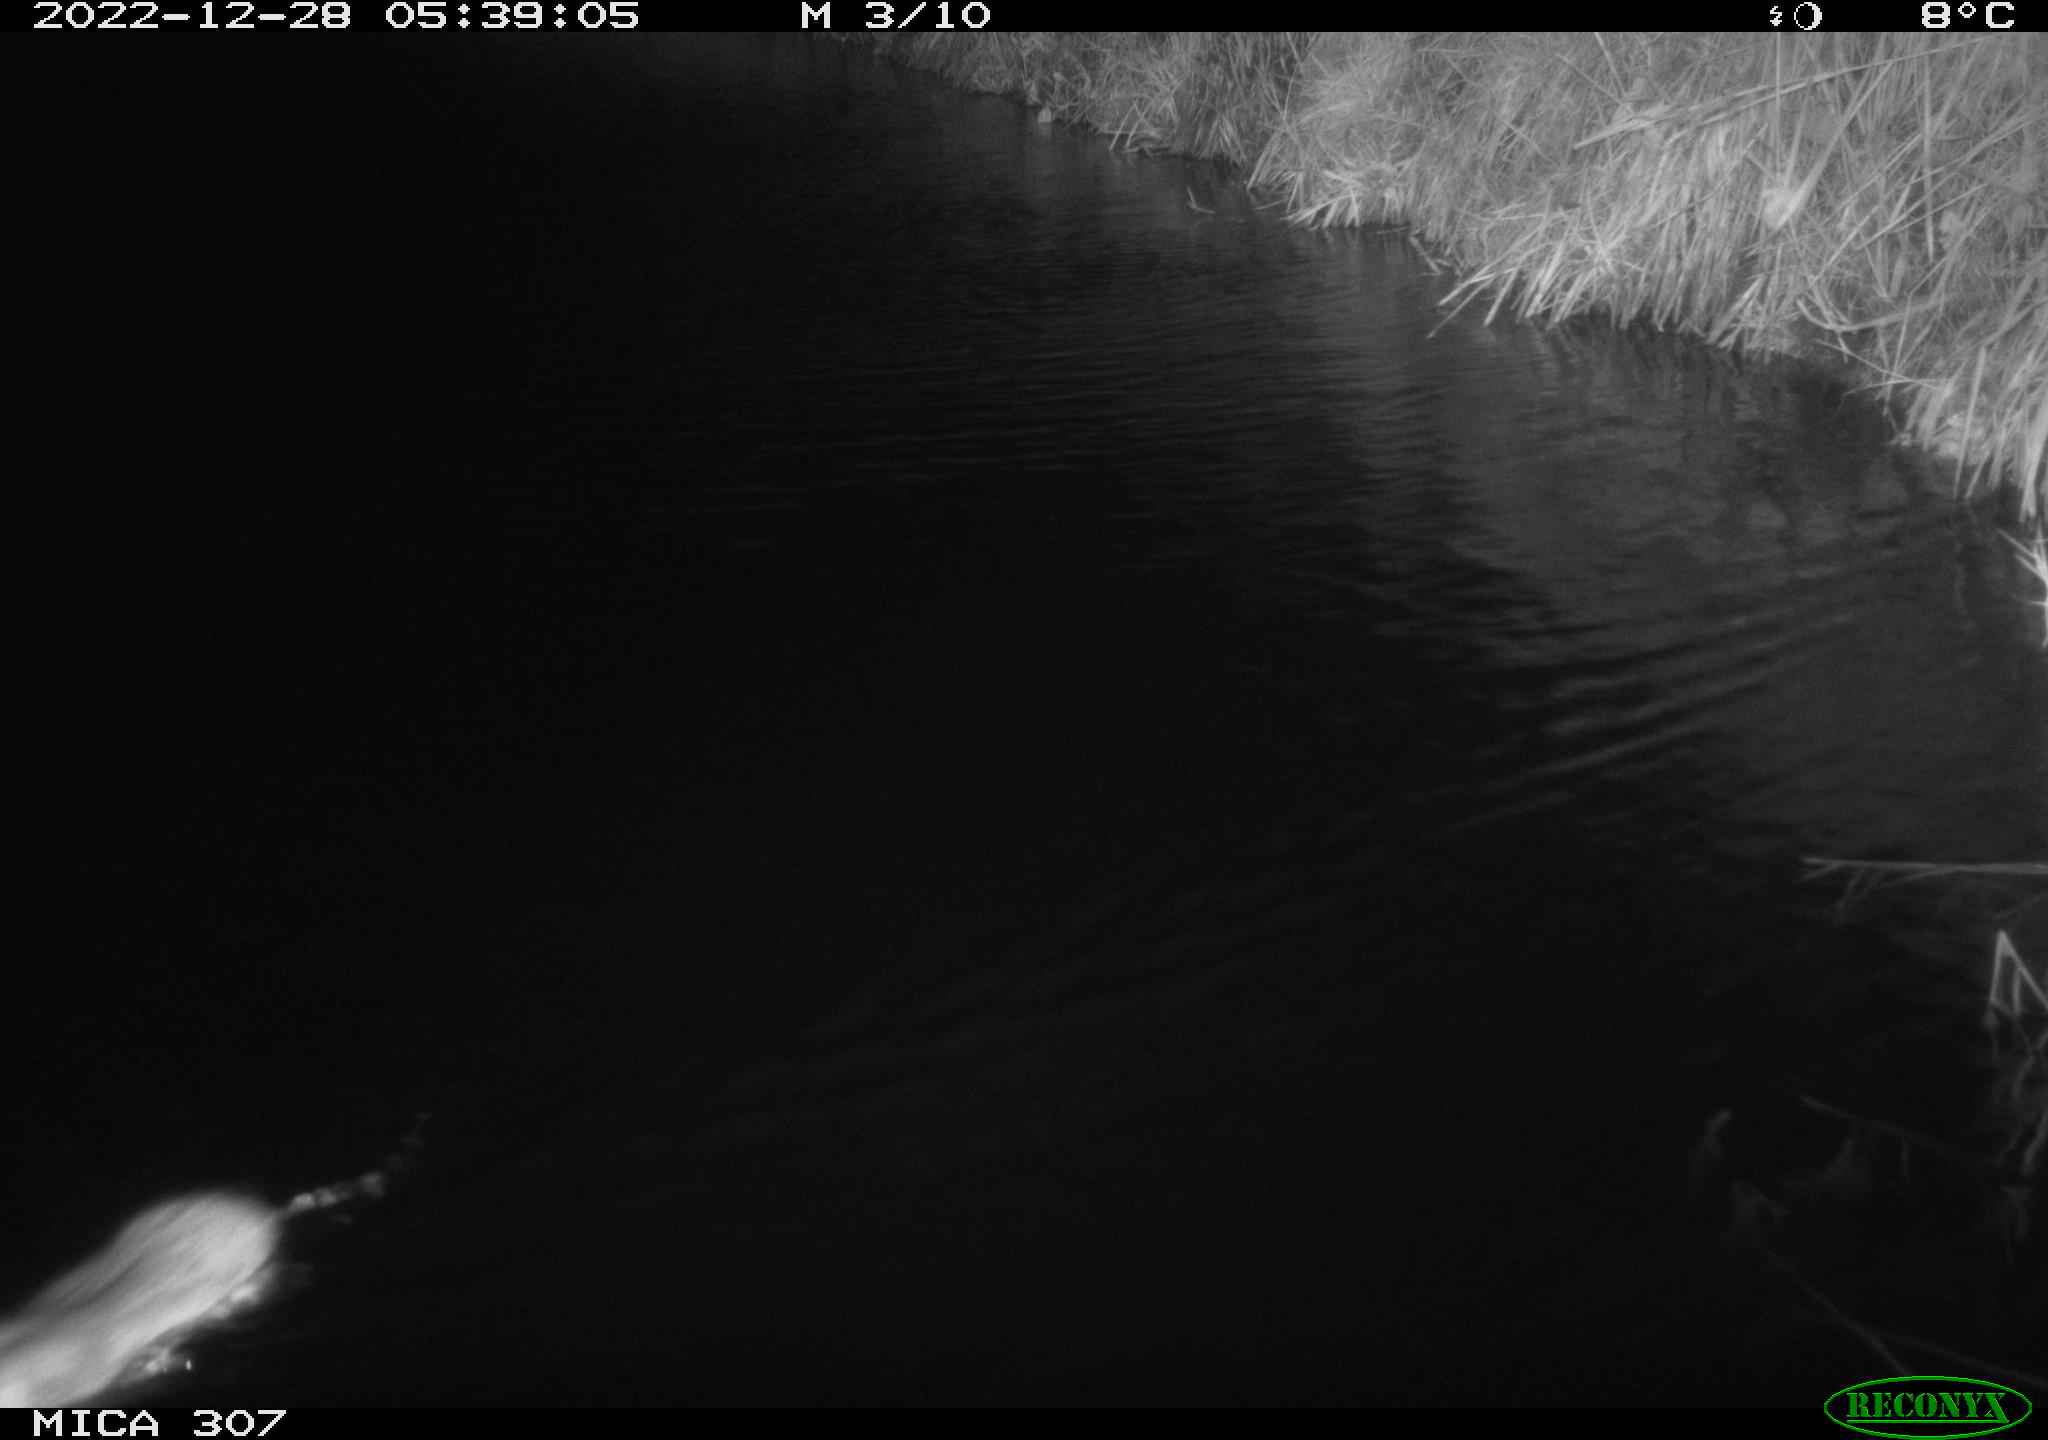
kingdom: Animalia
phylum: Chordata
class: Mammalia
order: Rodentia
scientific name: Rodentia
